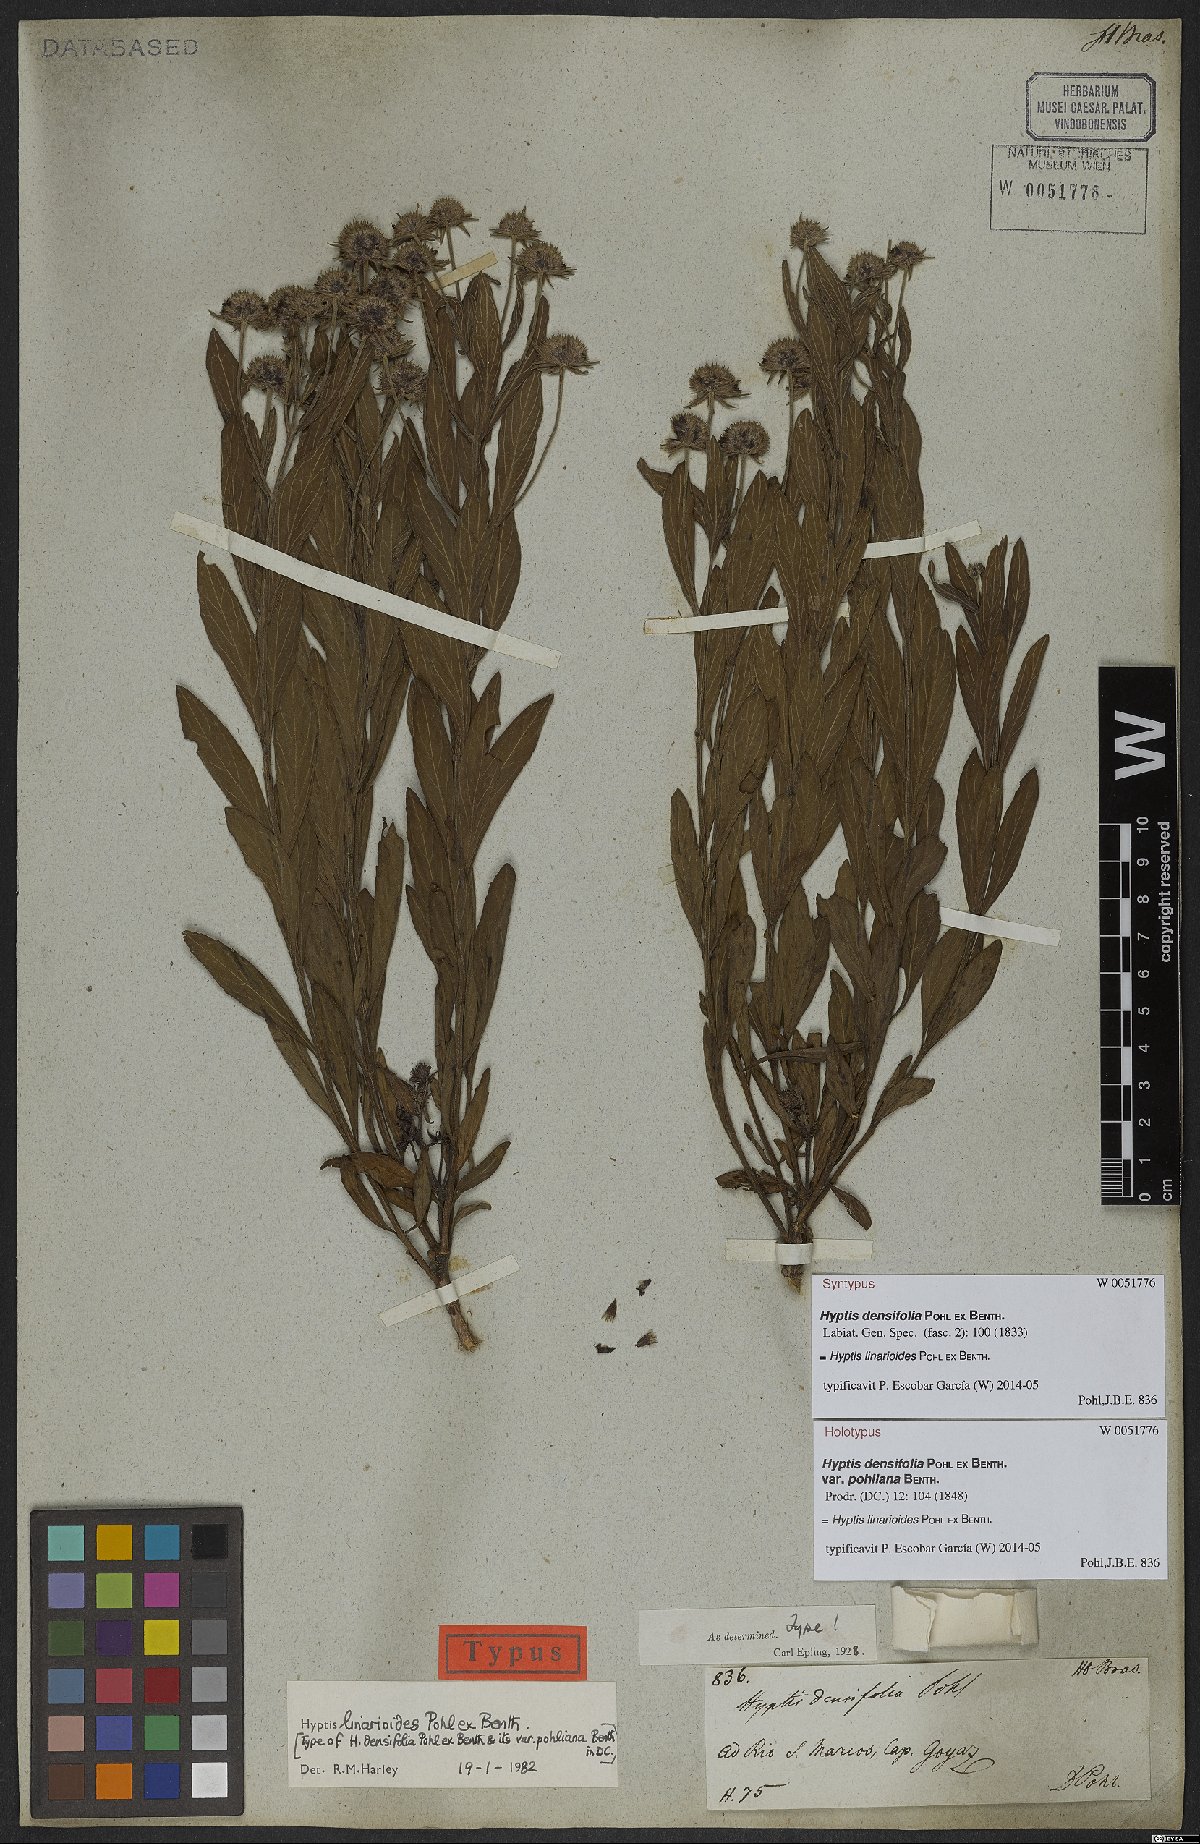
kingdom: Plantae
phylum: Tracheophyta
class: Magnoliopsida
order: Lamiales
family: Lamiaceae
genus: Hyptis
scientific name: Hyptis linarioides
